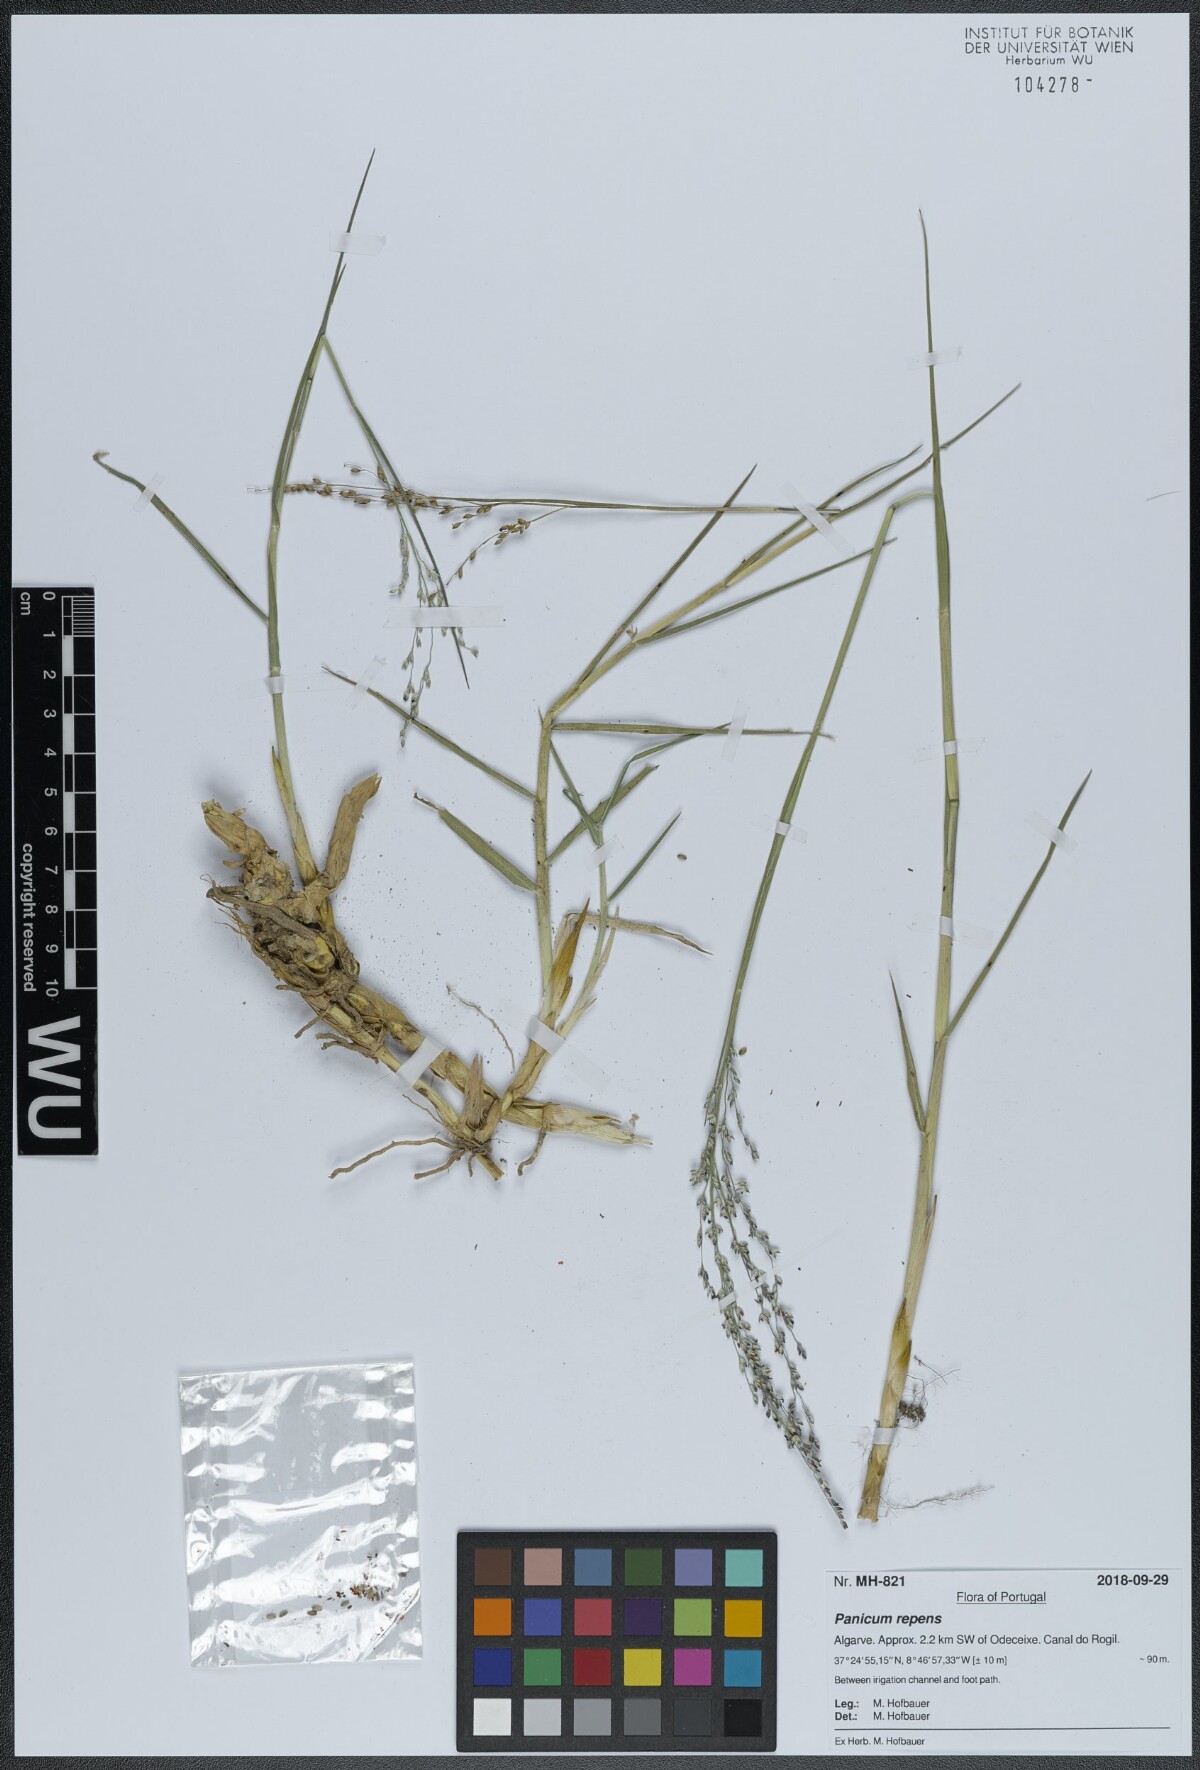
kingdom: Plantae
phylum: Tracheophyta
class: Liliopsida
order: Poales
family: Poaceae
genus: Panicum
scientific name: Panicum repens
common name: Torpedo grass
